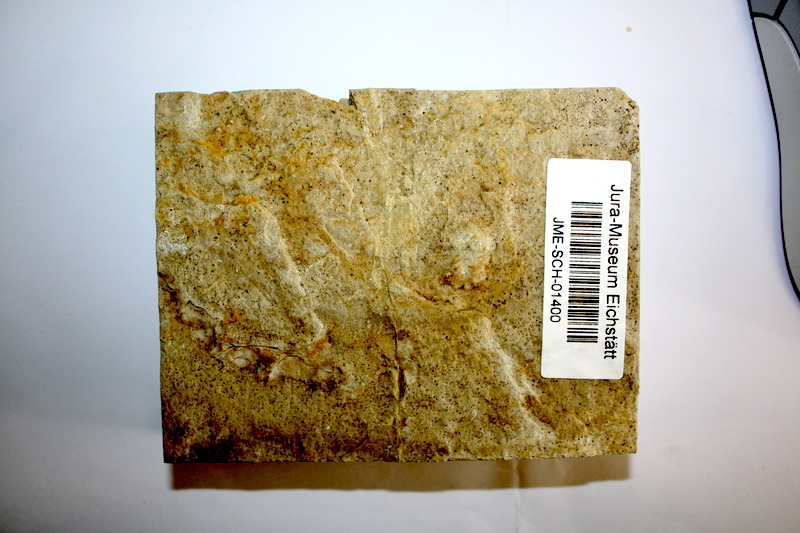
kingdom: Animalia
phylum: Chordata
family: Ascalaboidae
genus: Tharsis
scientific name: Tharsis dubius
